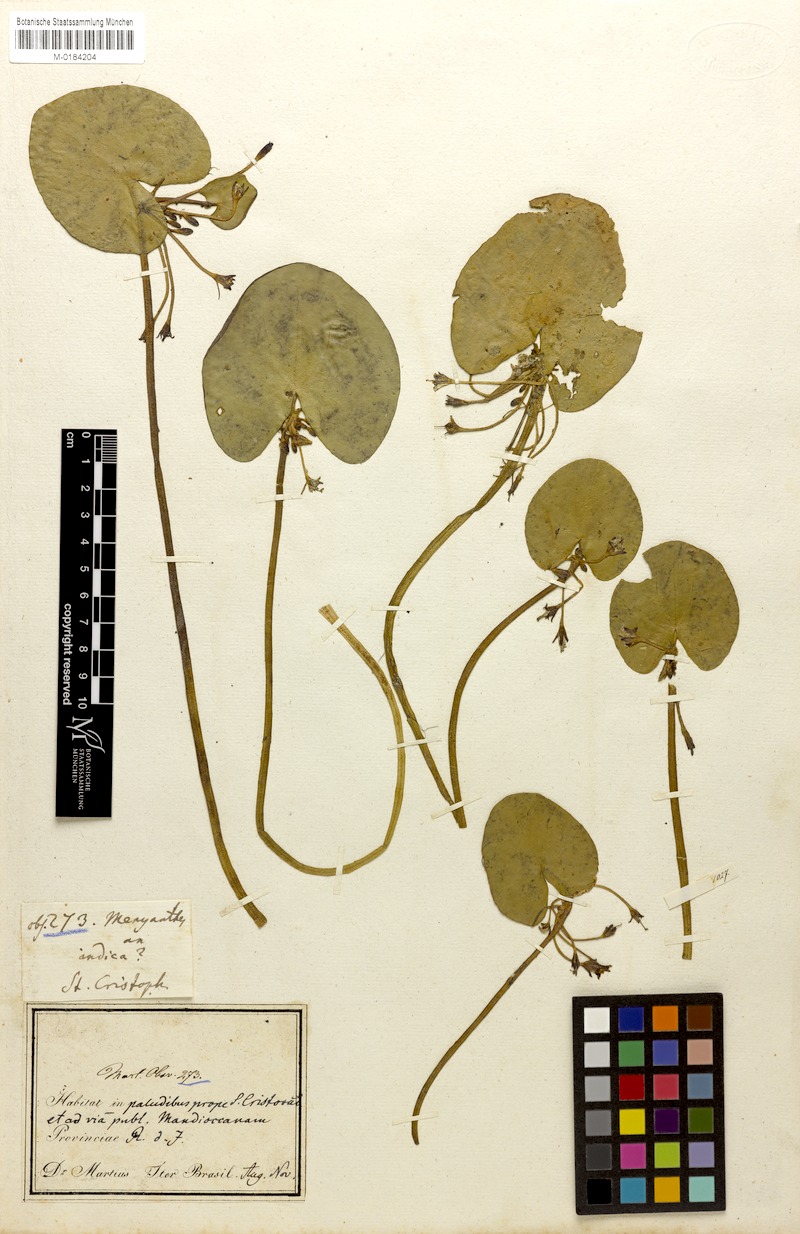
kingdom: Plantae
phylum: Tracheophyta
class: Magnoliopsida
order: Asterales
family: Menyanthaceae
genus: Nymphoides
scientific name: Nymphoides humboldtiana
